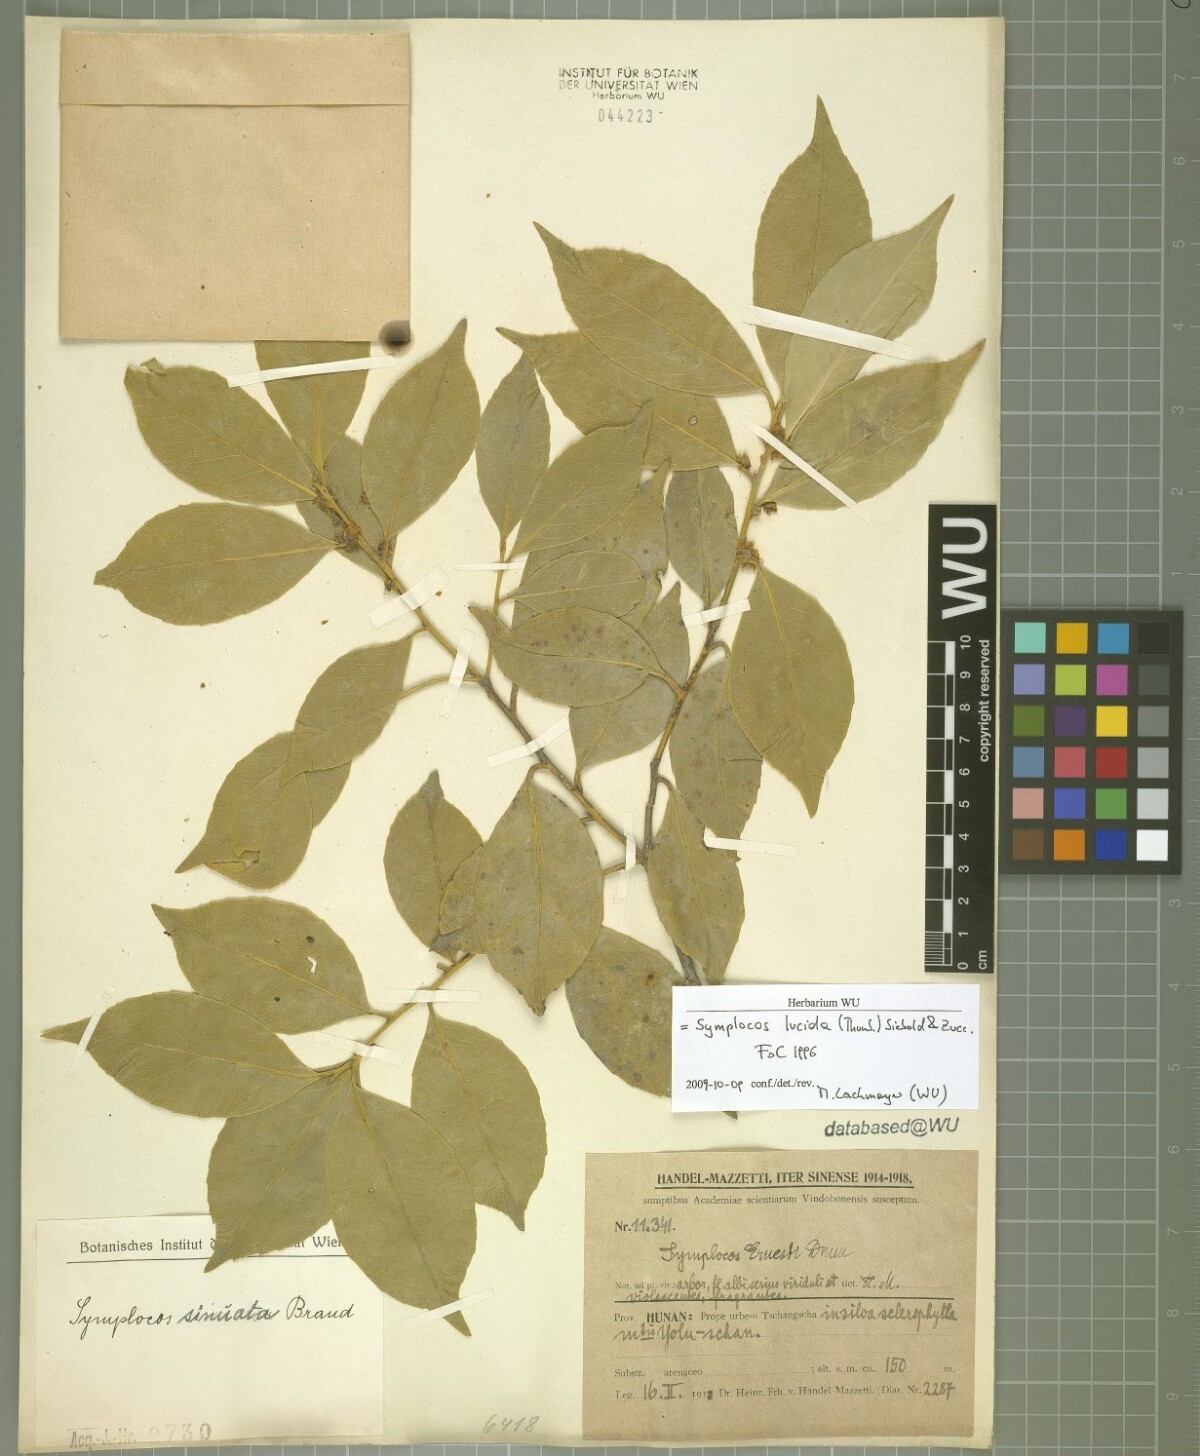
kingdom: Plantae
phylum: Tracheophyta
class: Magnoliopsida
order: Ericales
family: Symplocaceae
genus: Symplocos
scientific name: Symplocos nakaharae
